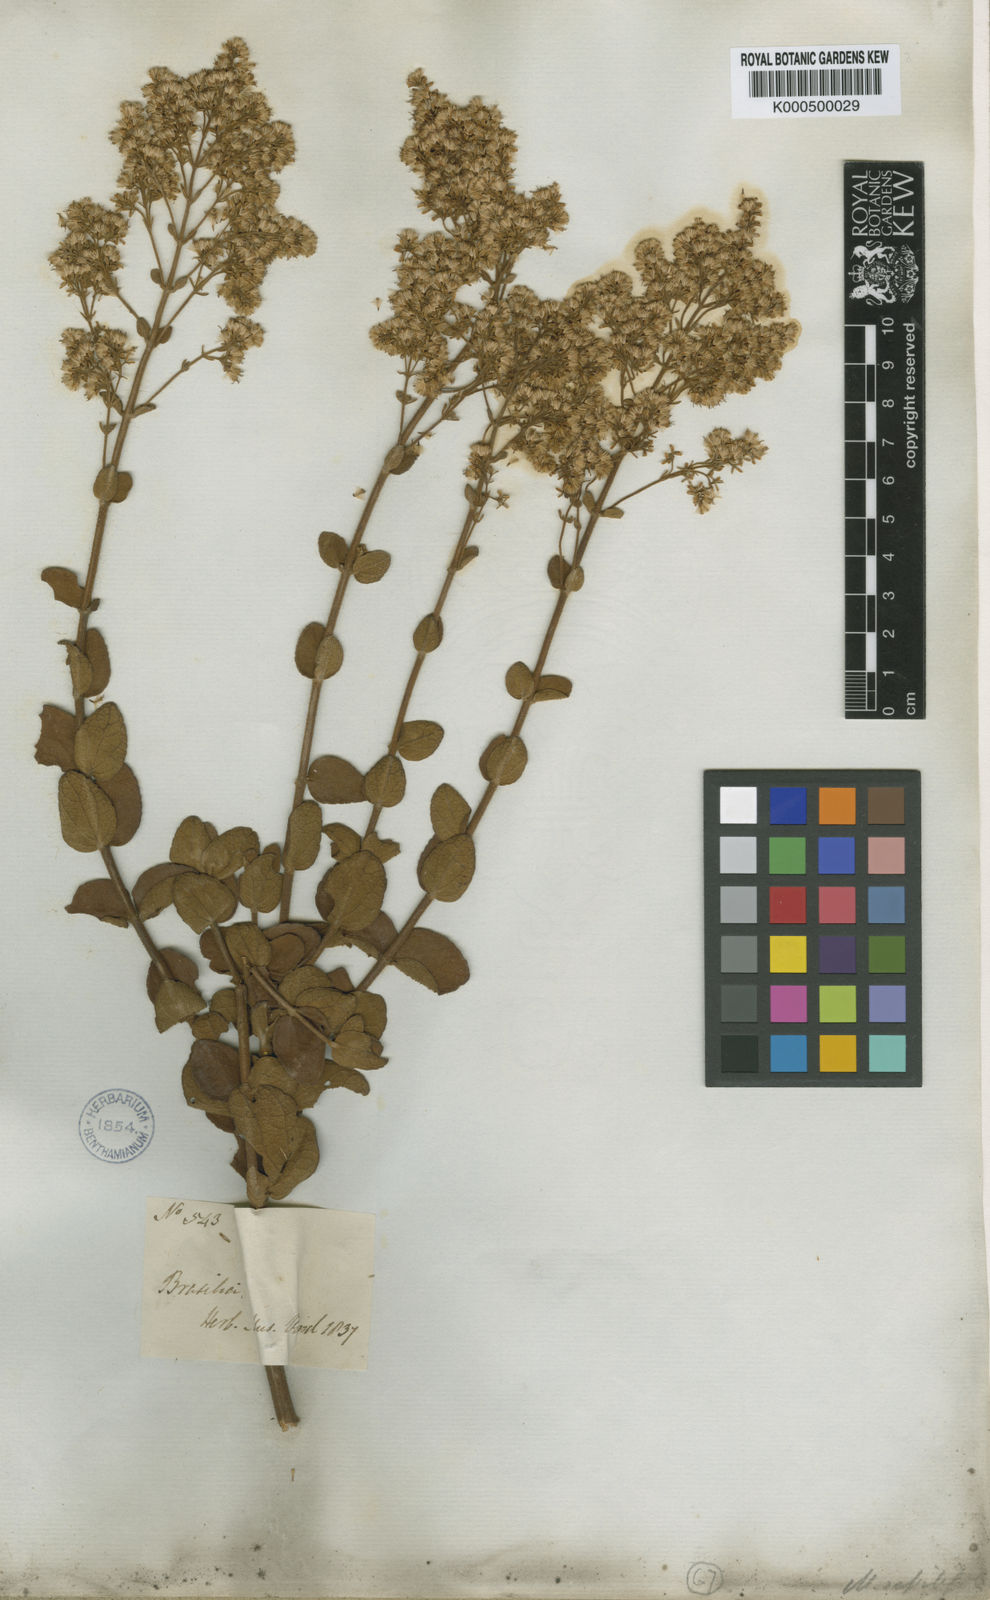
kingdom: Plantae
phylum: Tracheophyta
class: Magnoliopsida
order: Asterales
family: Asteraceae
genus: Mikania
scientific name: Mikania sessilifolia
